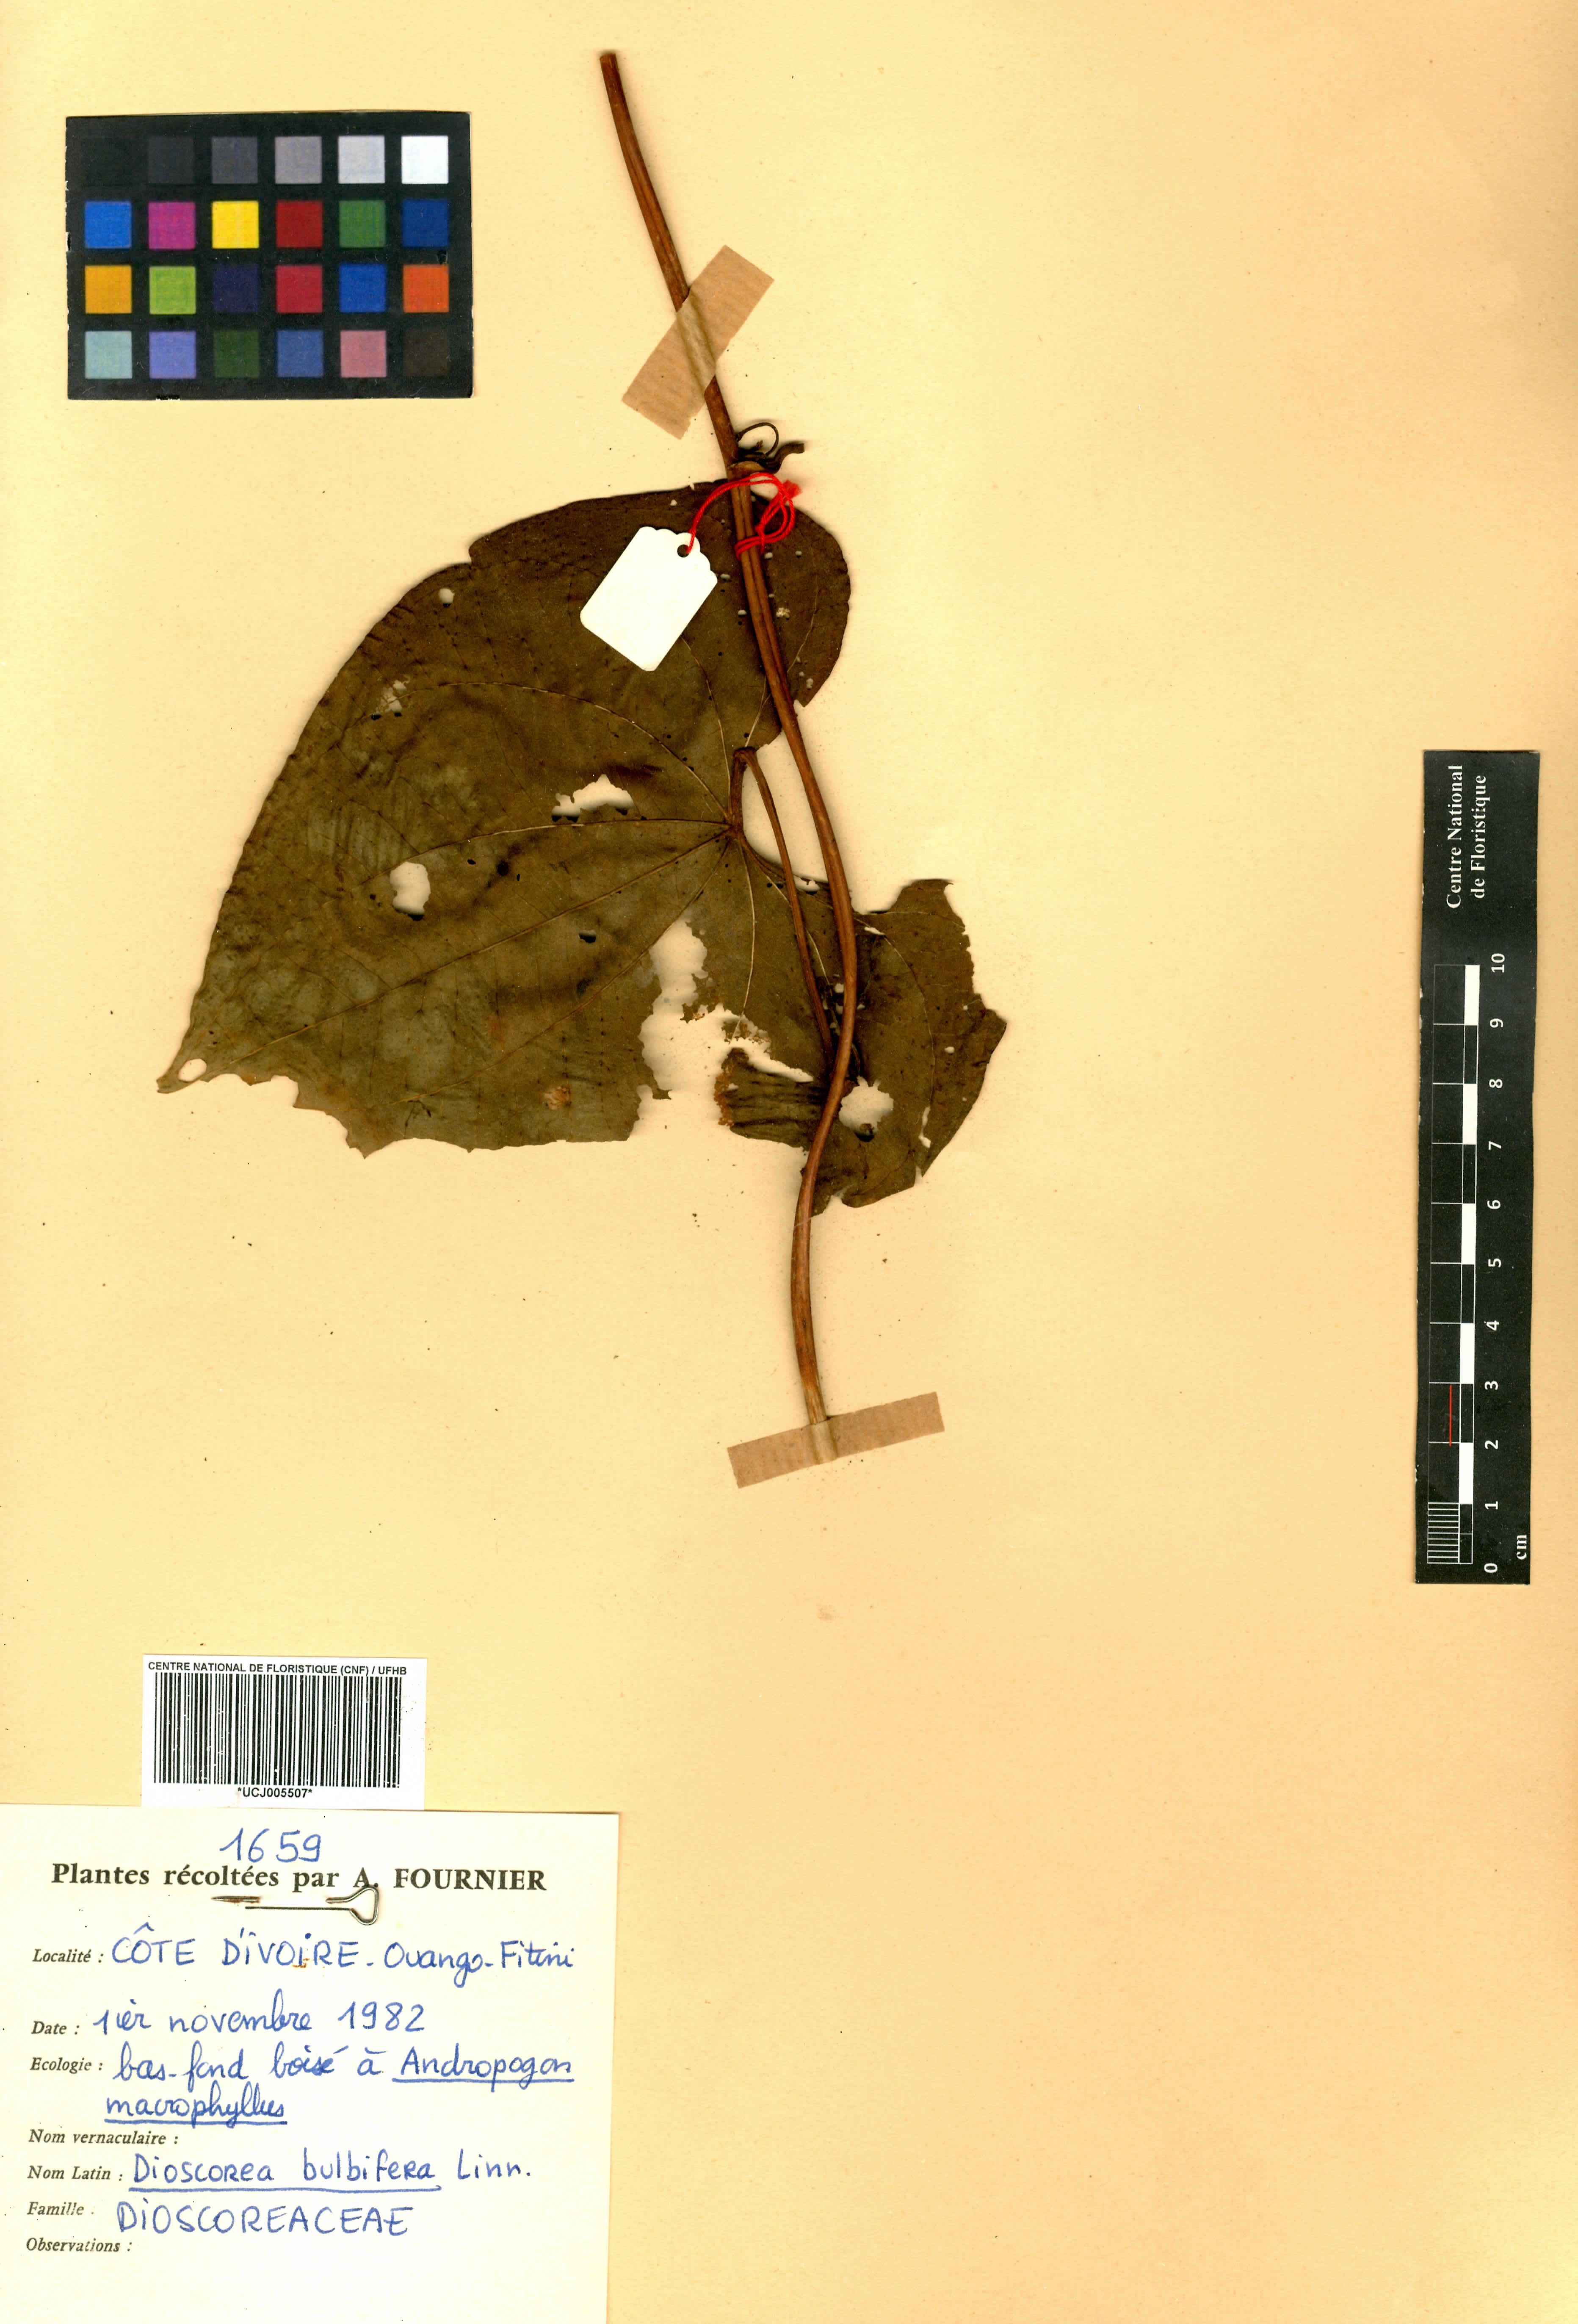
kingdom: Plantae
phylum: Tracheophyta
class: Liliopsida
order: Dioscoreales
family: Dioscoreaceae
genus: Dioscorea
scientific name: Dioscorea bulbifera
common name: Air yam
